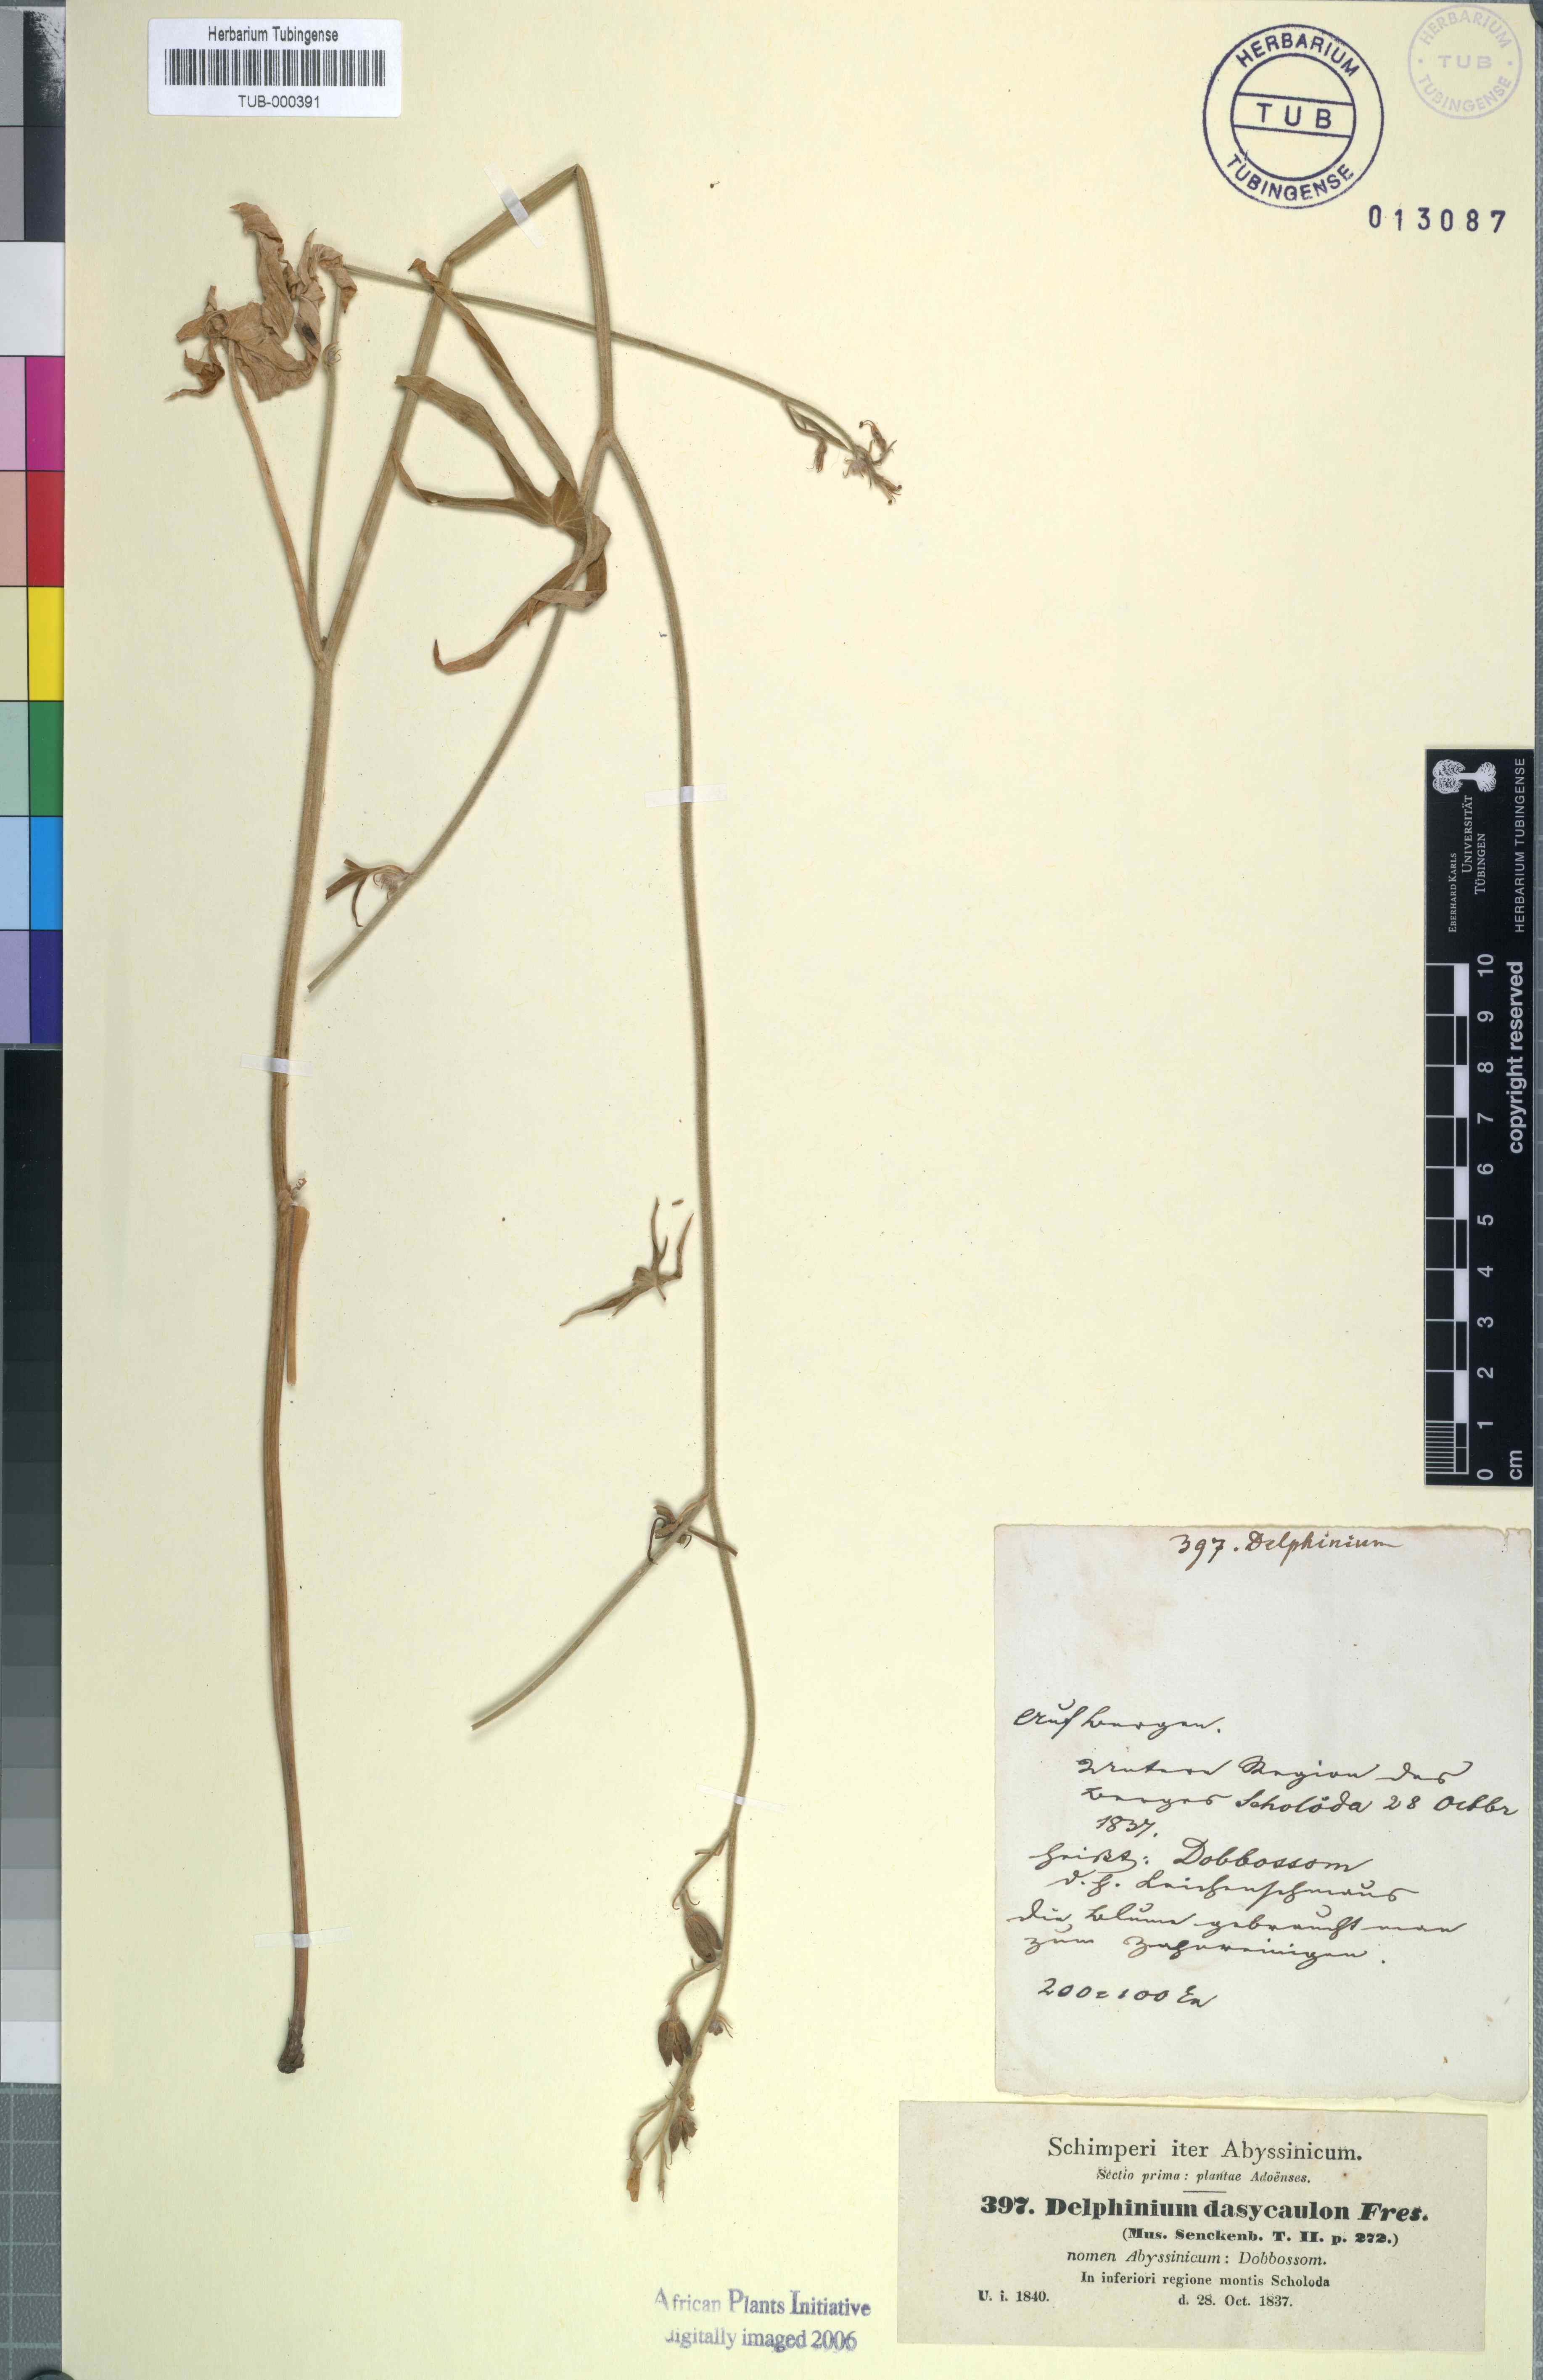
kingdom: Plantae
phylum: Tracheophyta
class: Magnoliopsida
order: Ranunculales
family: Ranunculaceae
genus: Delphinium
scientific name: Delphinium dasycaulon
